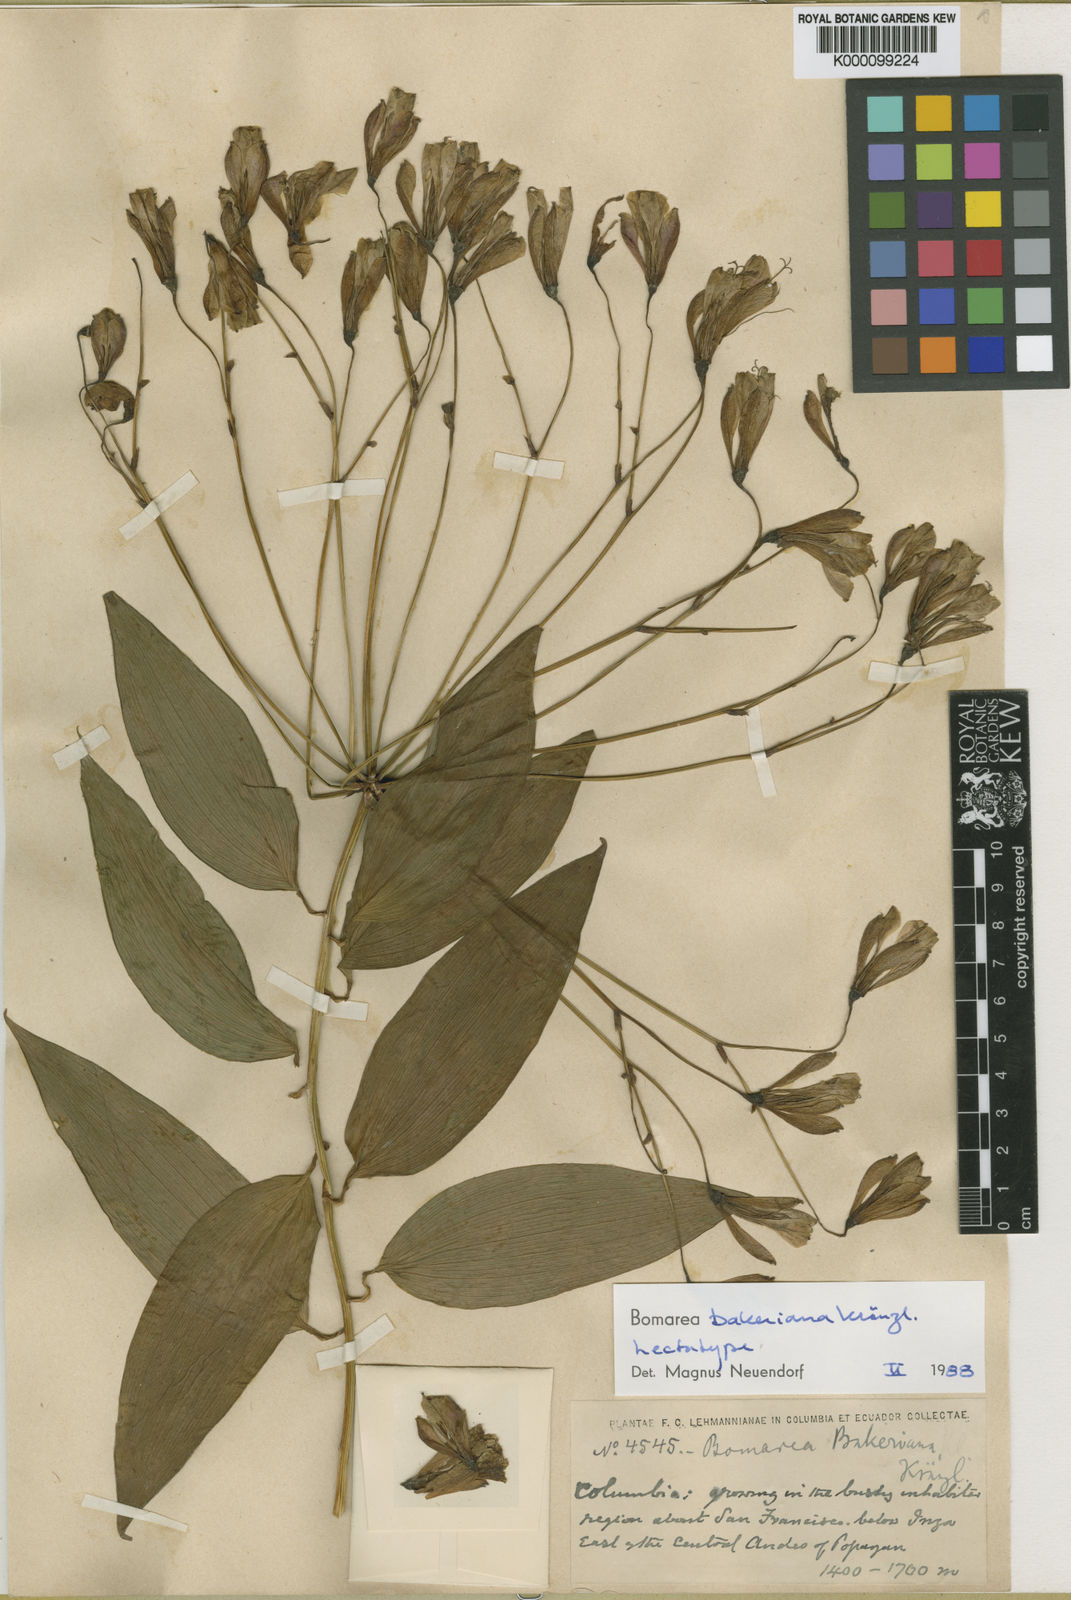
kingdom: Plantae
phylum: Tracheophyta
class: Liliopsida
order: Liliales
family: Alstroemeriaceae
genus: Bomarea
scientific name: Bomarea edulis
